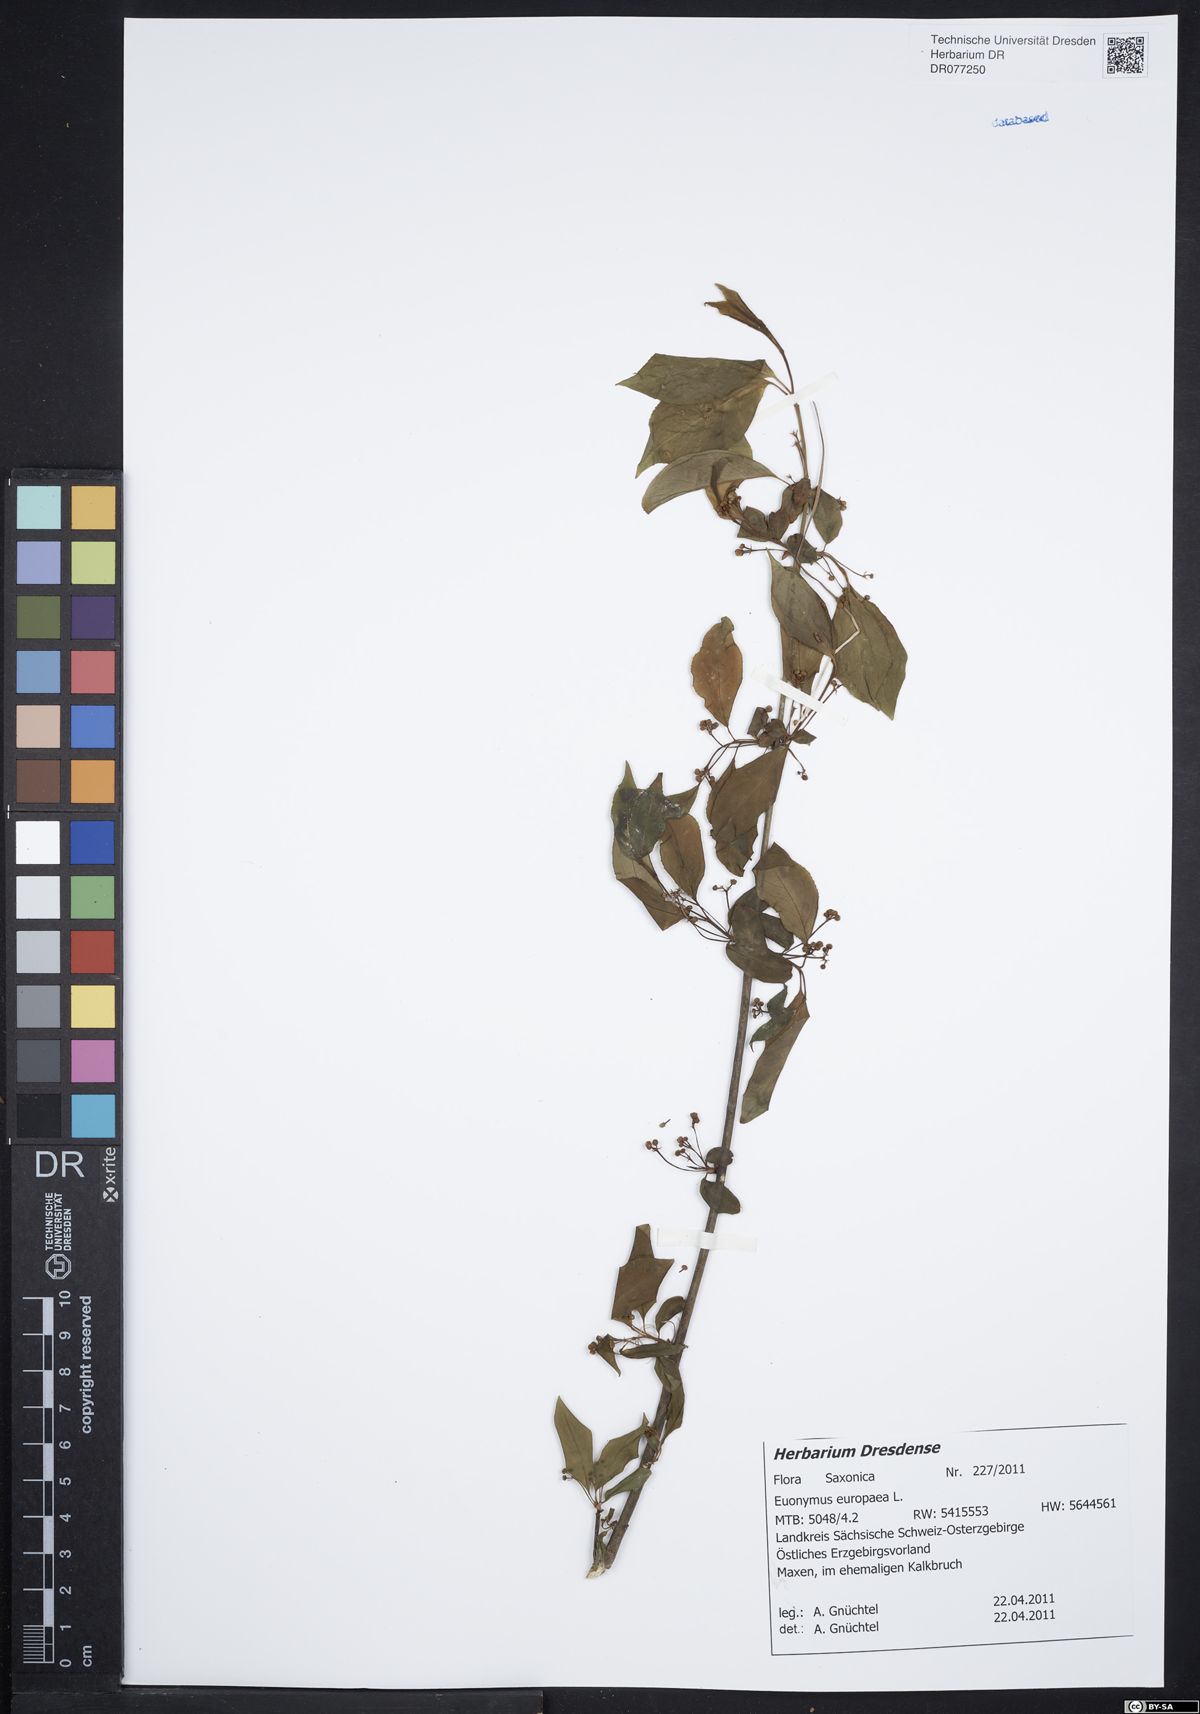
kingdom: Plantae
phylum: Tracheophyta
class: Magnoliopsida
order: Celastrales
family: Celastraceae
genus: Euonymus
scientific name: Euonymus europaeus
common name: Spindle
